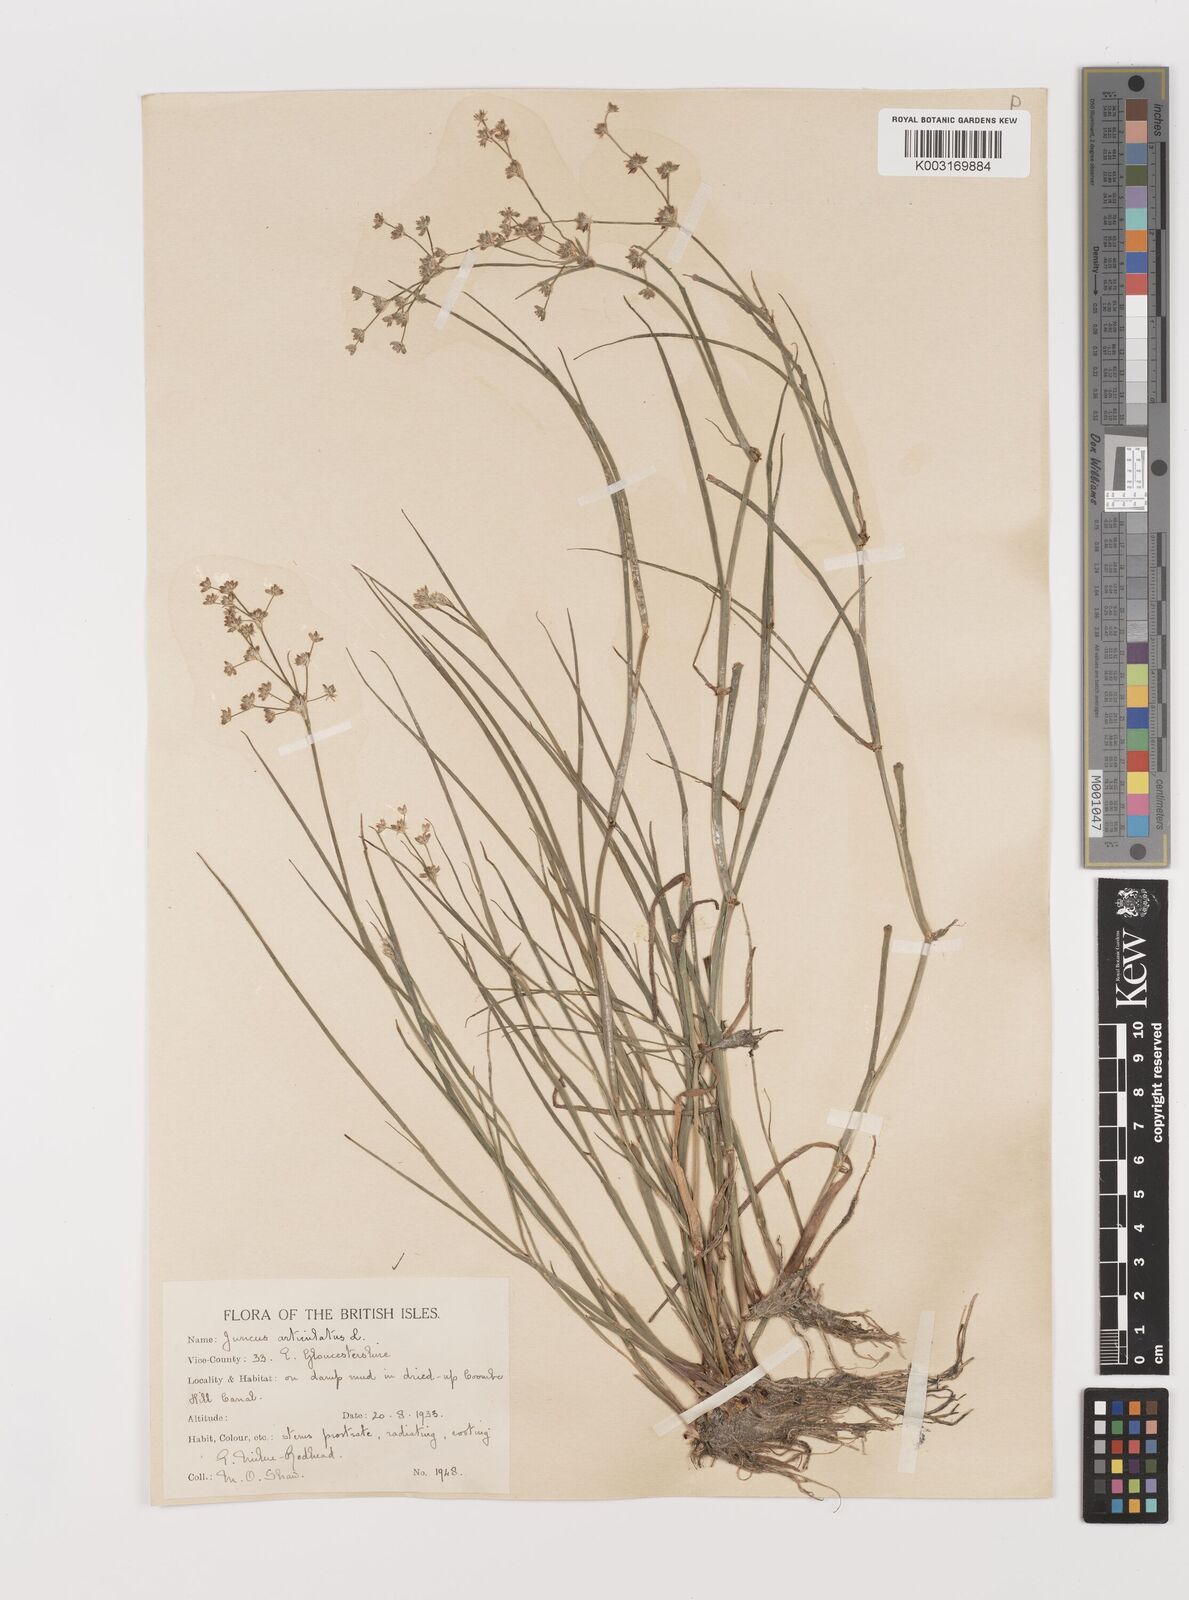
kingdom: Plantae
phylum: Tracheophyta
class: Liliopsida
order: Poales
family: Juncaceae
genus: Juncus
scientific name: Juncus articulatus
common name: Jointed rush
